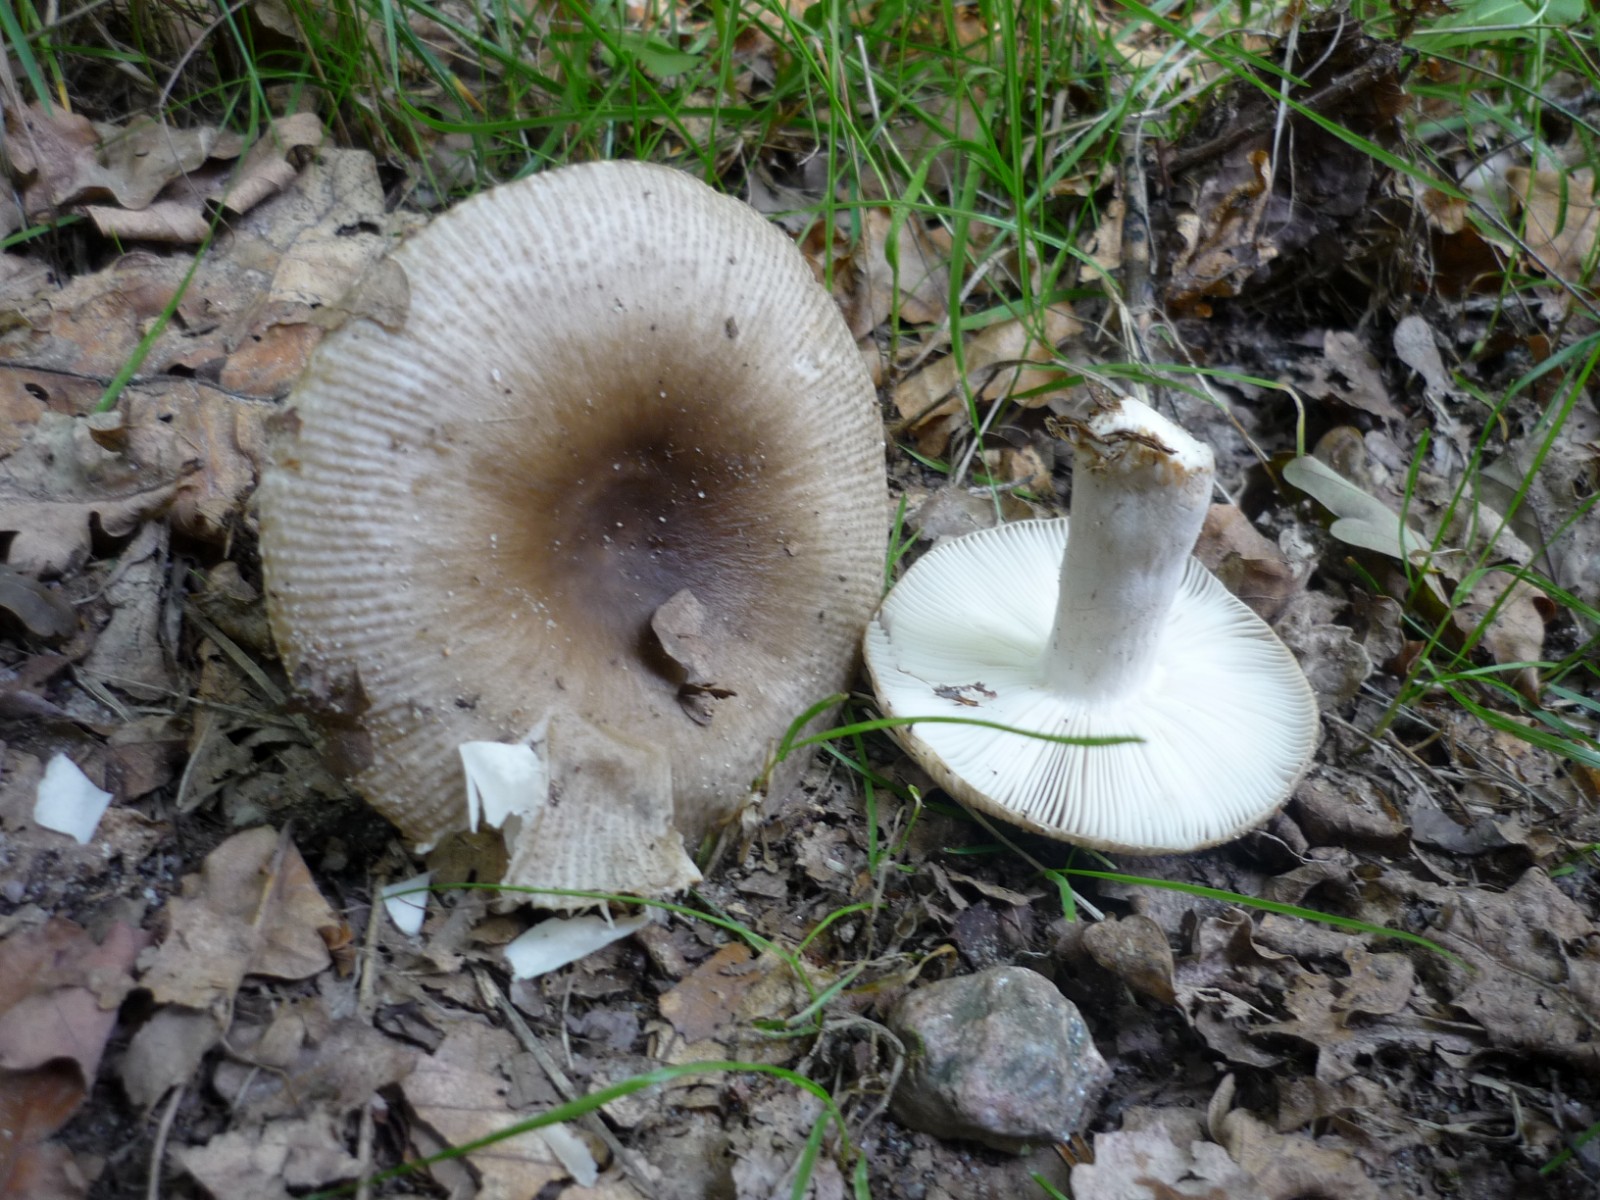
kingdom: Fungi
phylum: Basidiomycota
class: Agaricomycetes
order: Russulales
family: Russulaceae
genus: Russula
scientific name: Russula amoenolens
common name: skarp kam-skørhat
